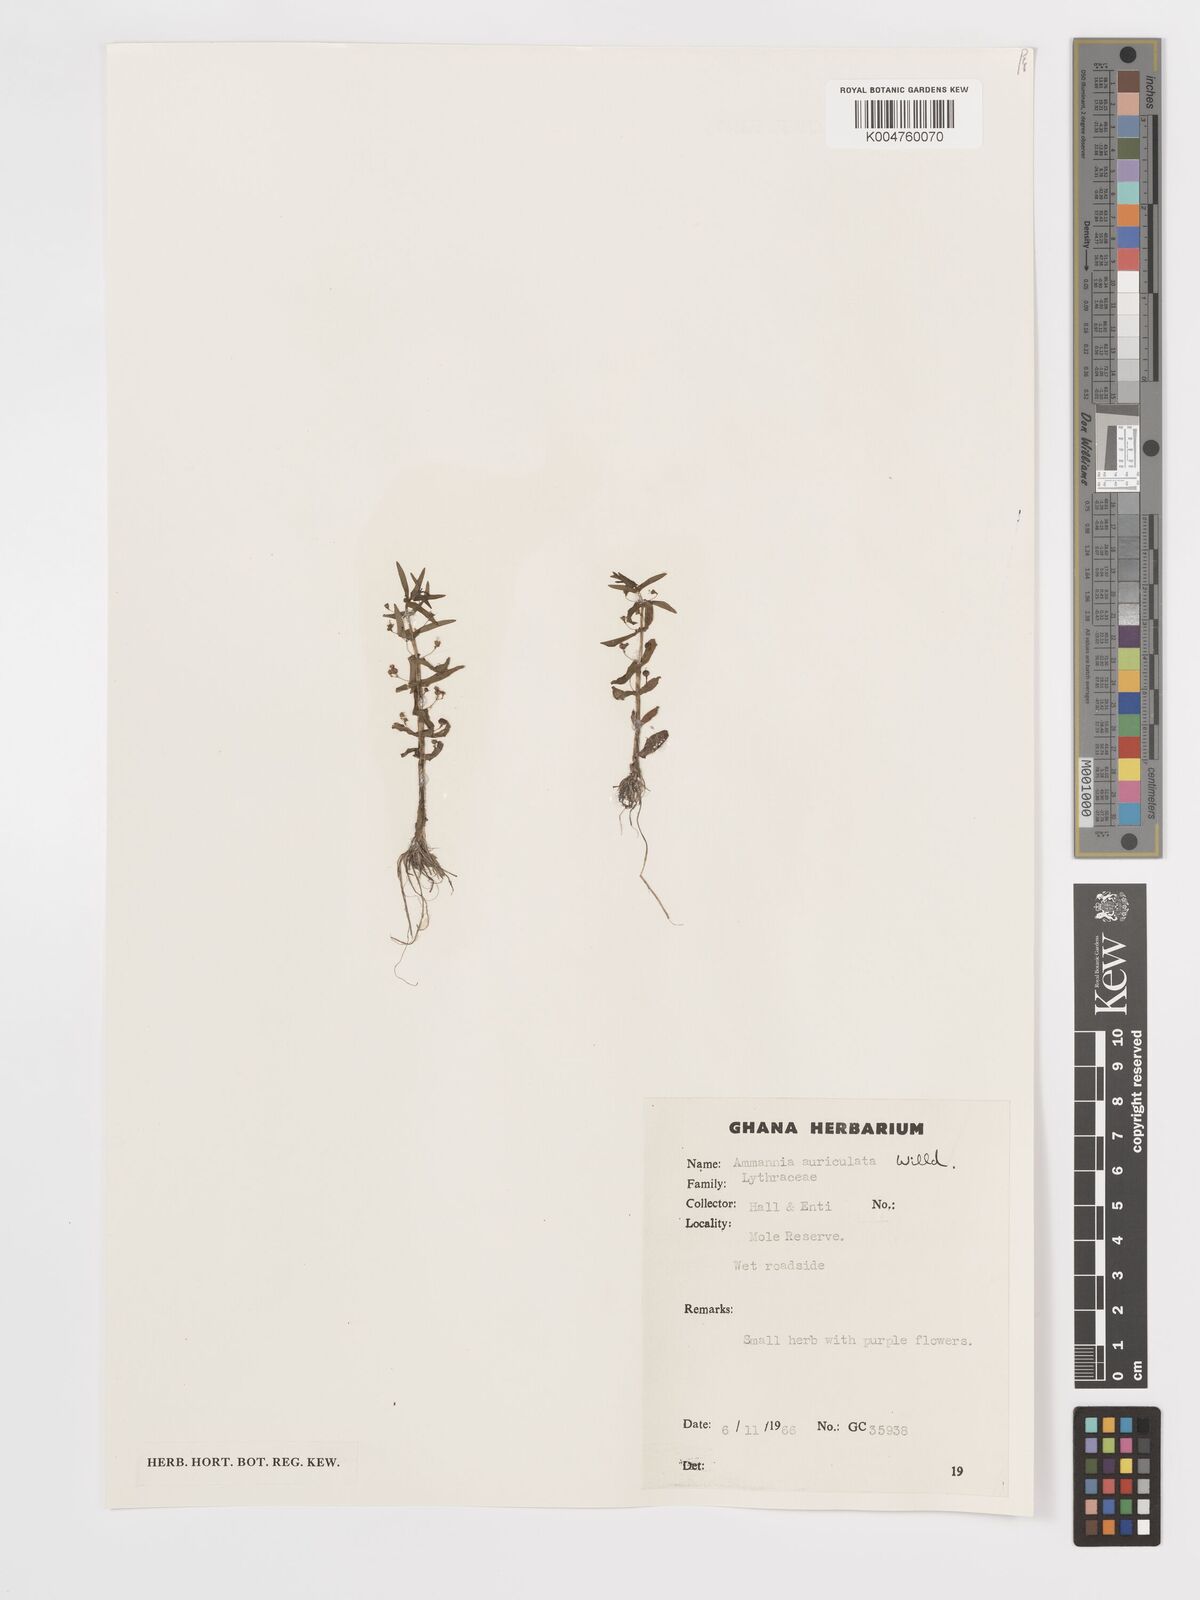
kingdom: Plantae
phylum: Tracheophyta
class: Magnoliopsida
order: Myrtales
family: Lythraceae
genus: Ammannia
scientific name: Ammannia auriculata
